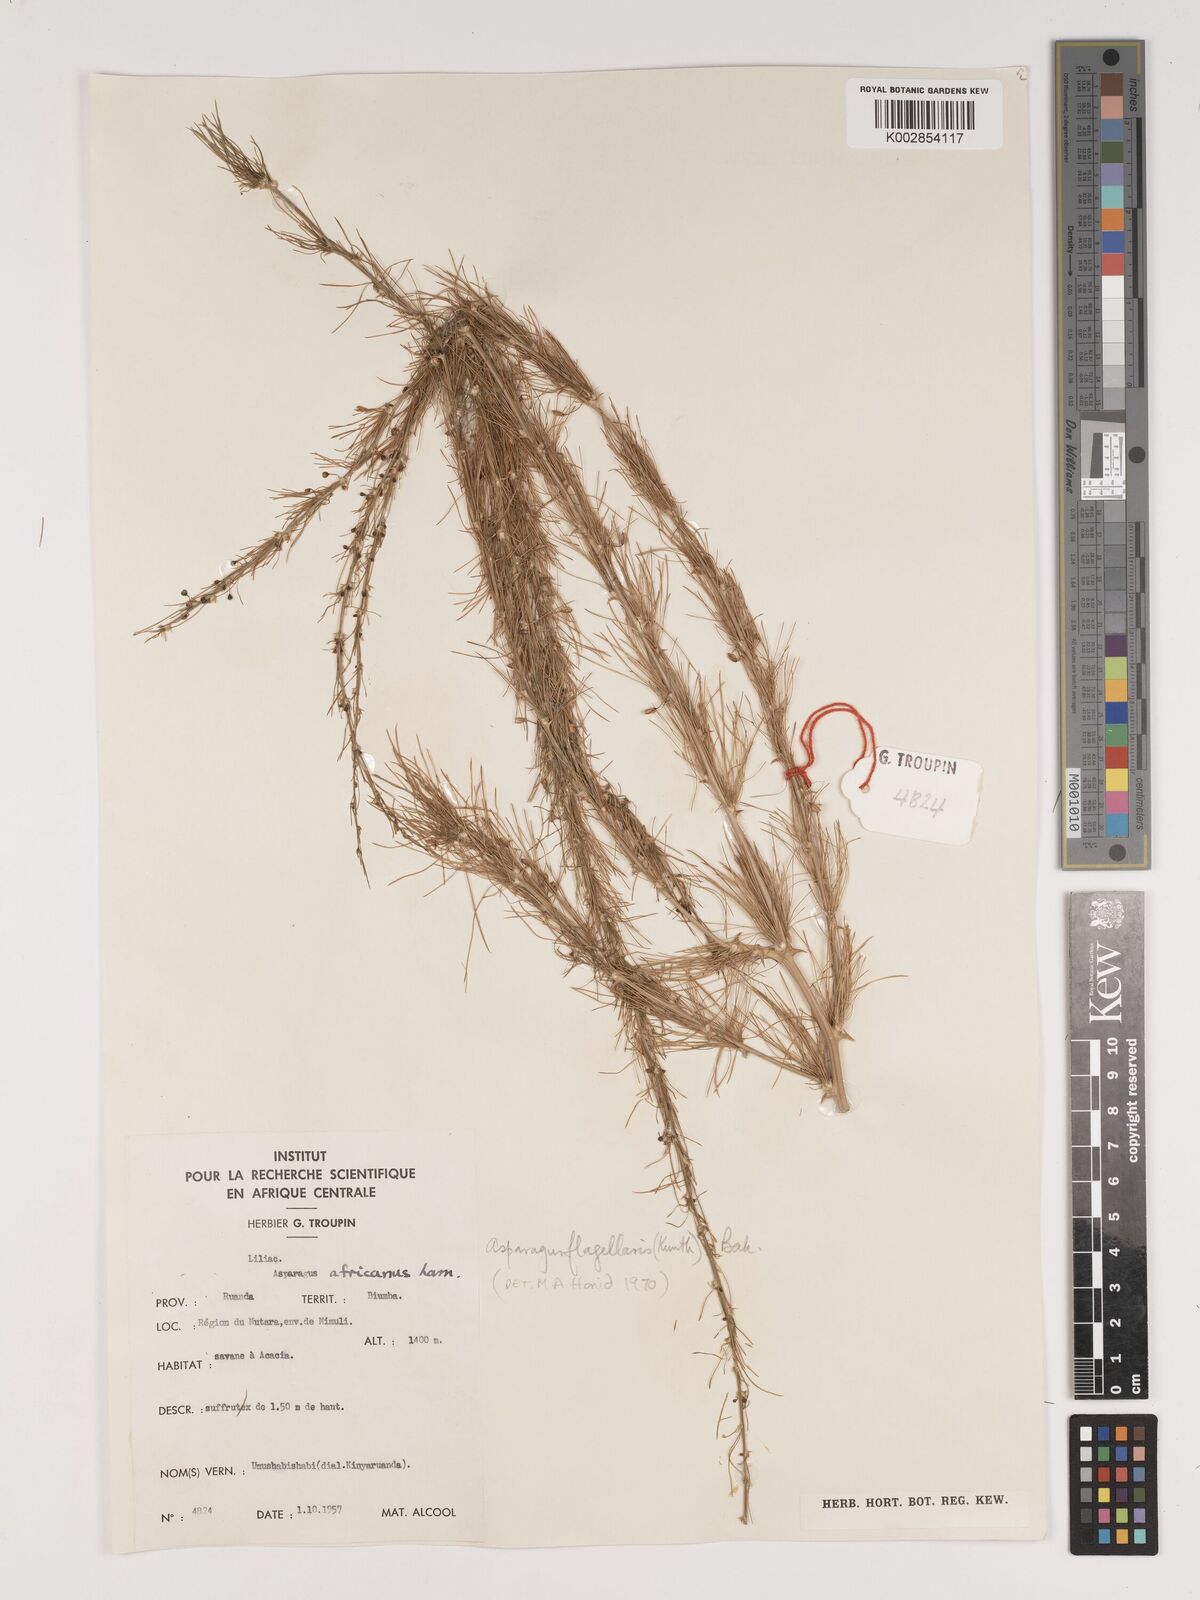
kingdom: Plantae
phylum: Tracheophyta
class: Liliopsida
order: Asparagales
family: Asparagaceae
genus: Asparagus
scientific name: Asparagus flagellaris
